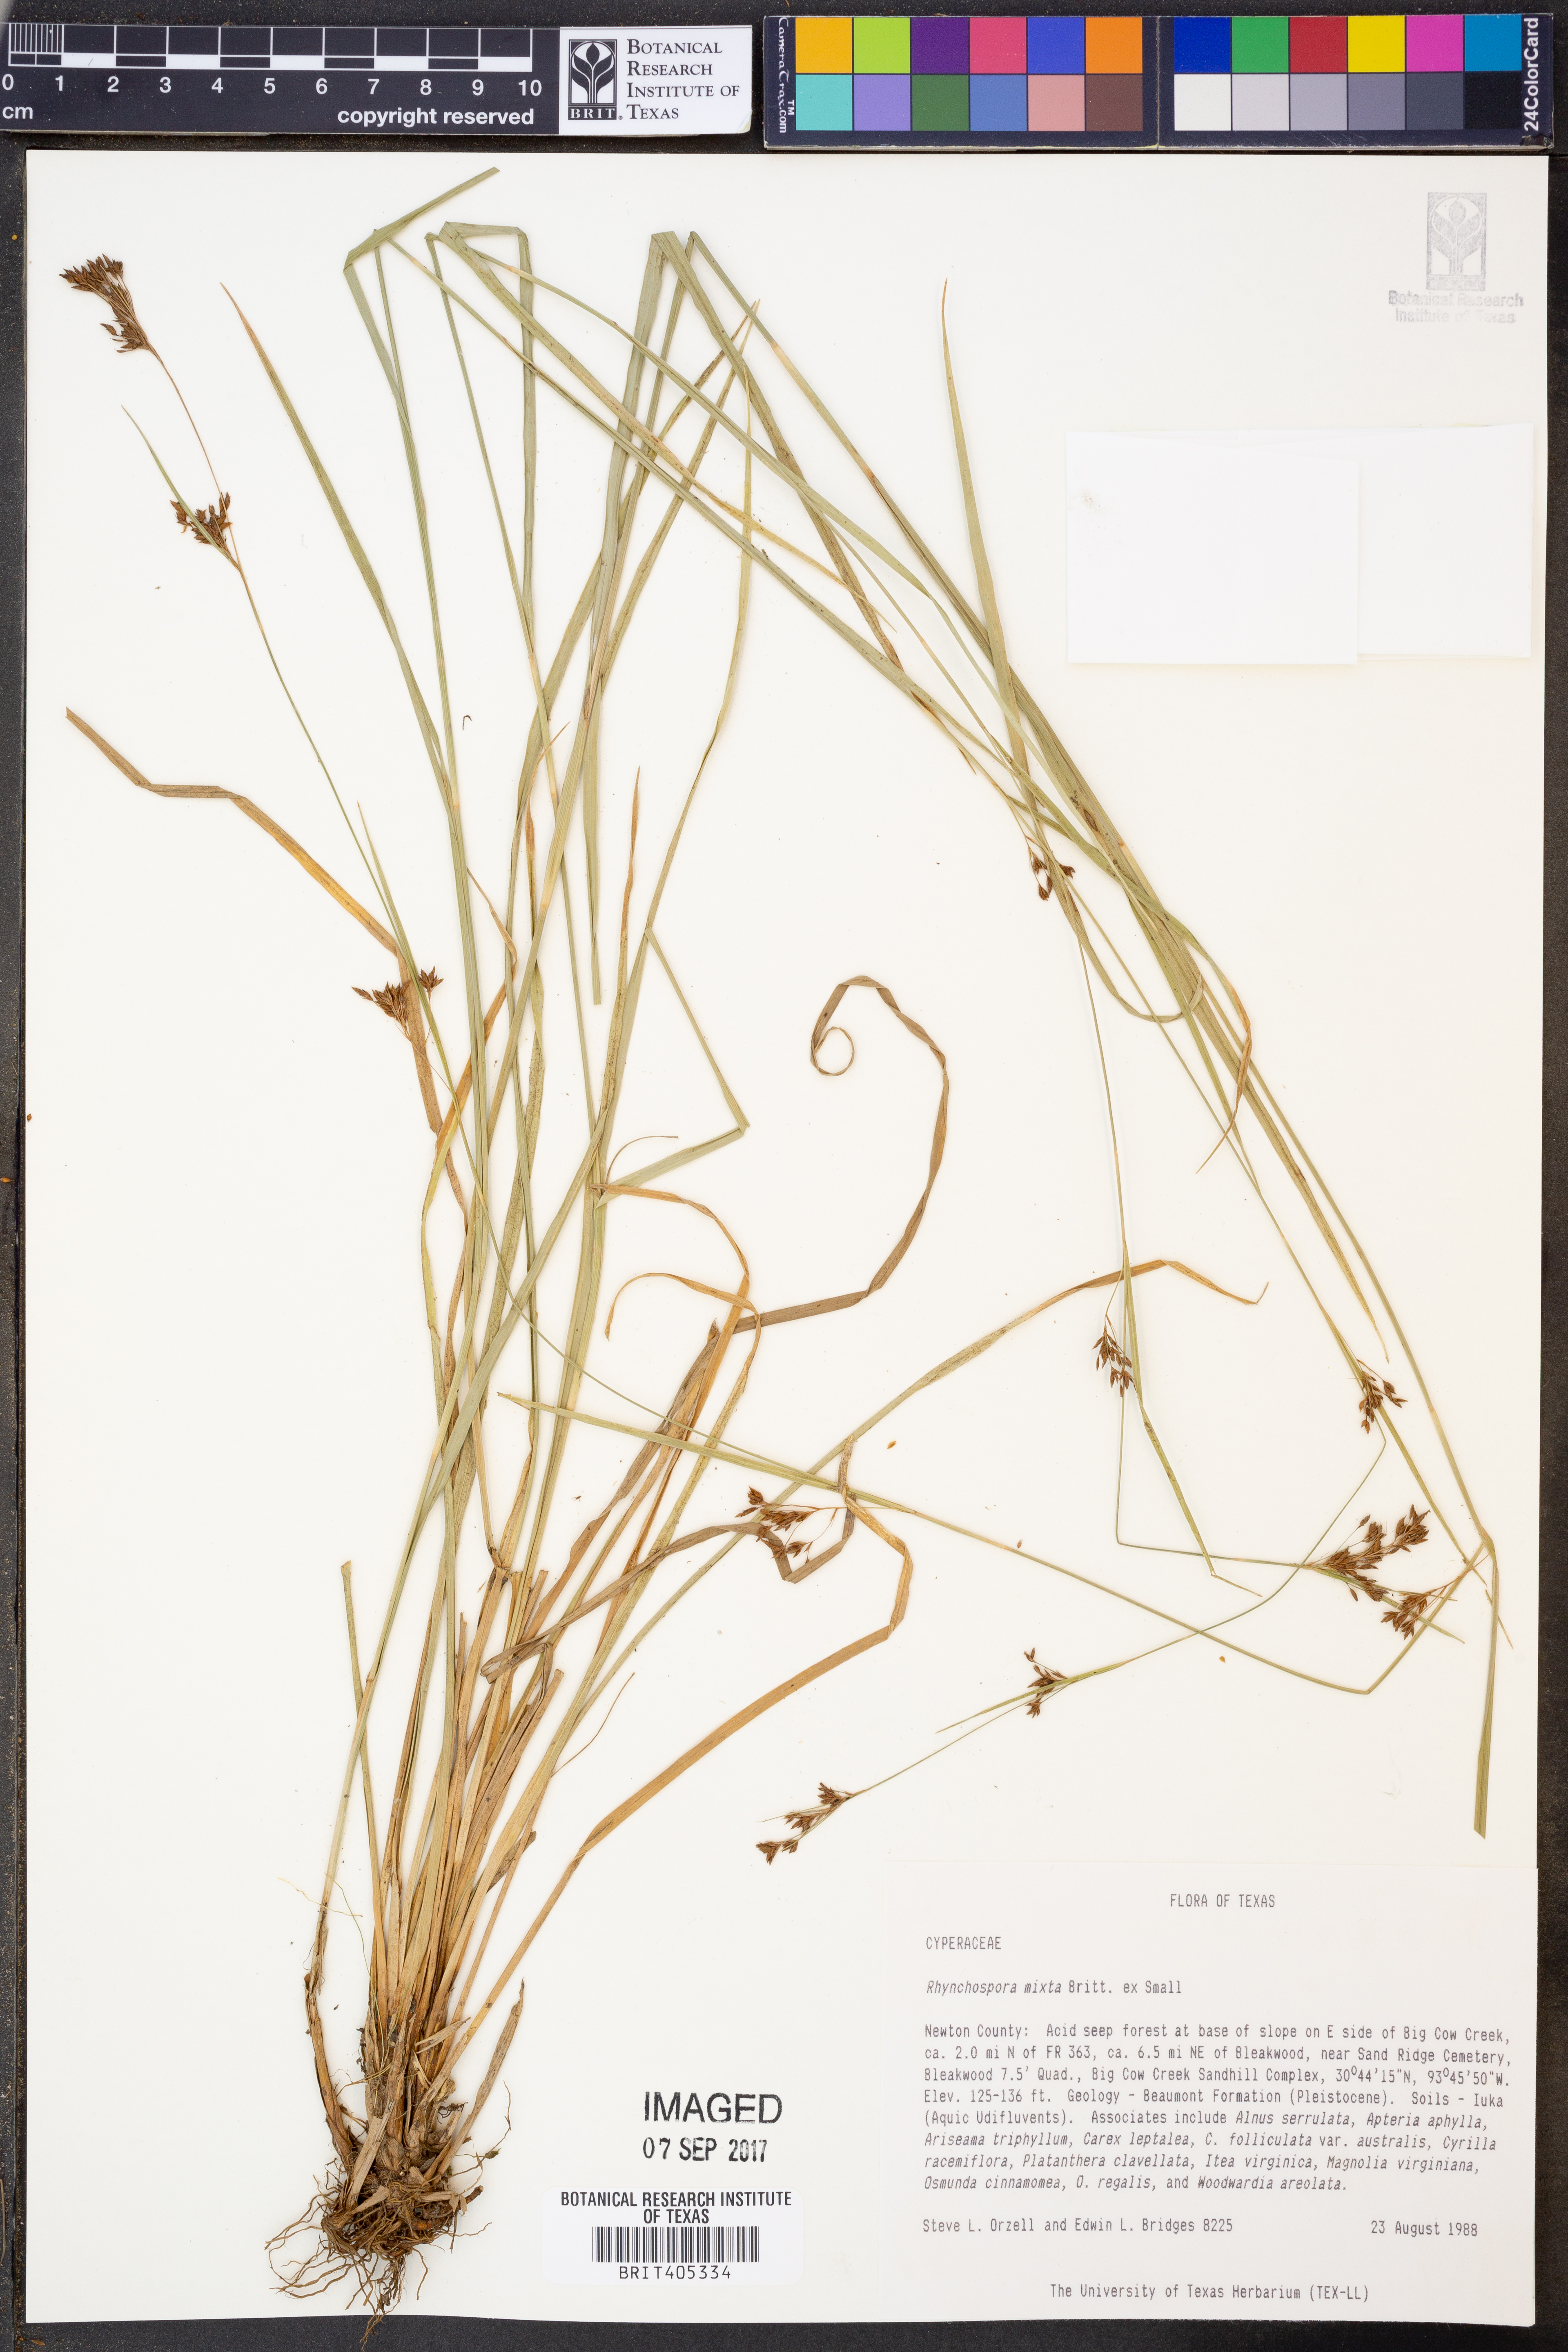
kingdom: Plantae
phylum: Tracheophyta
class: Liliopsida
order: Poales
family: Cyperaceae
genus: Rhynchospora
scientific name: Rhynchospora mixta
